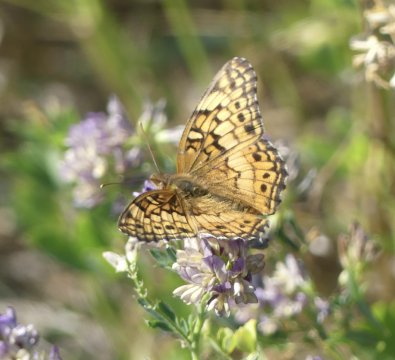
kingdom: Animalia
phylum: Arthropoda
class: Insecta
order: Lepidoptera
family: Nymphalidae
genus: Euptoieta
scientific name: Euptoieta claudia
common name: Variegated Fritillary
